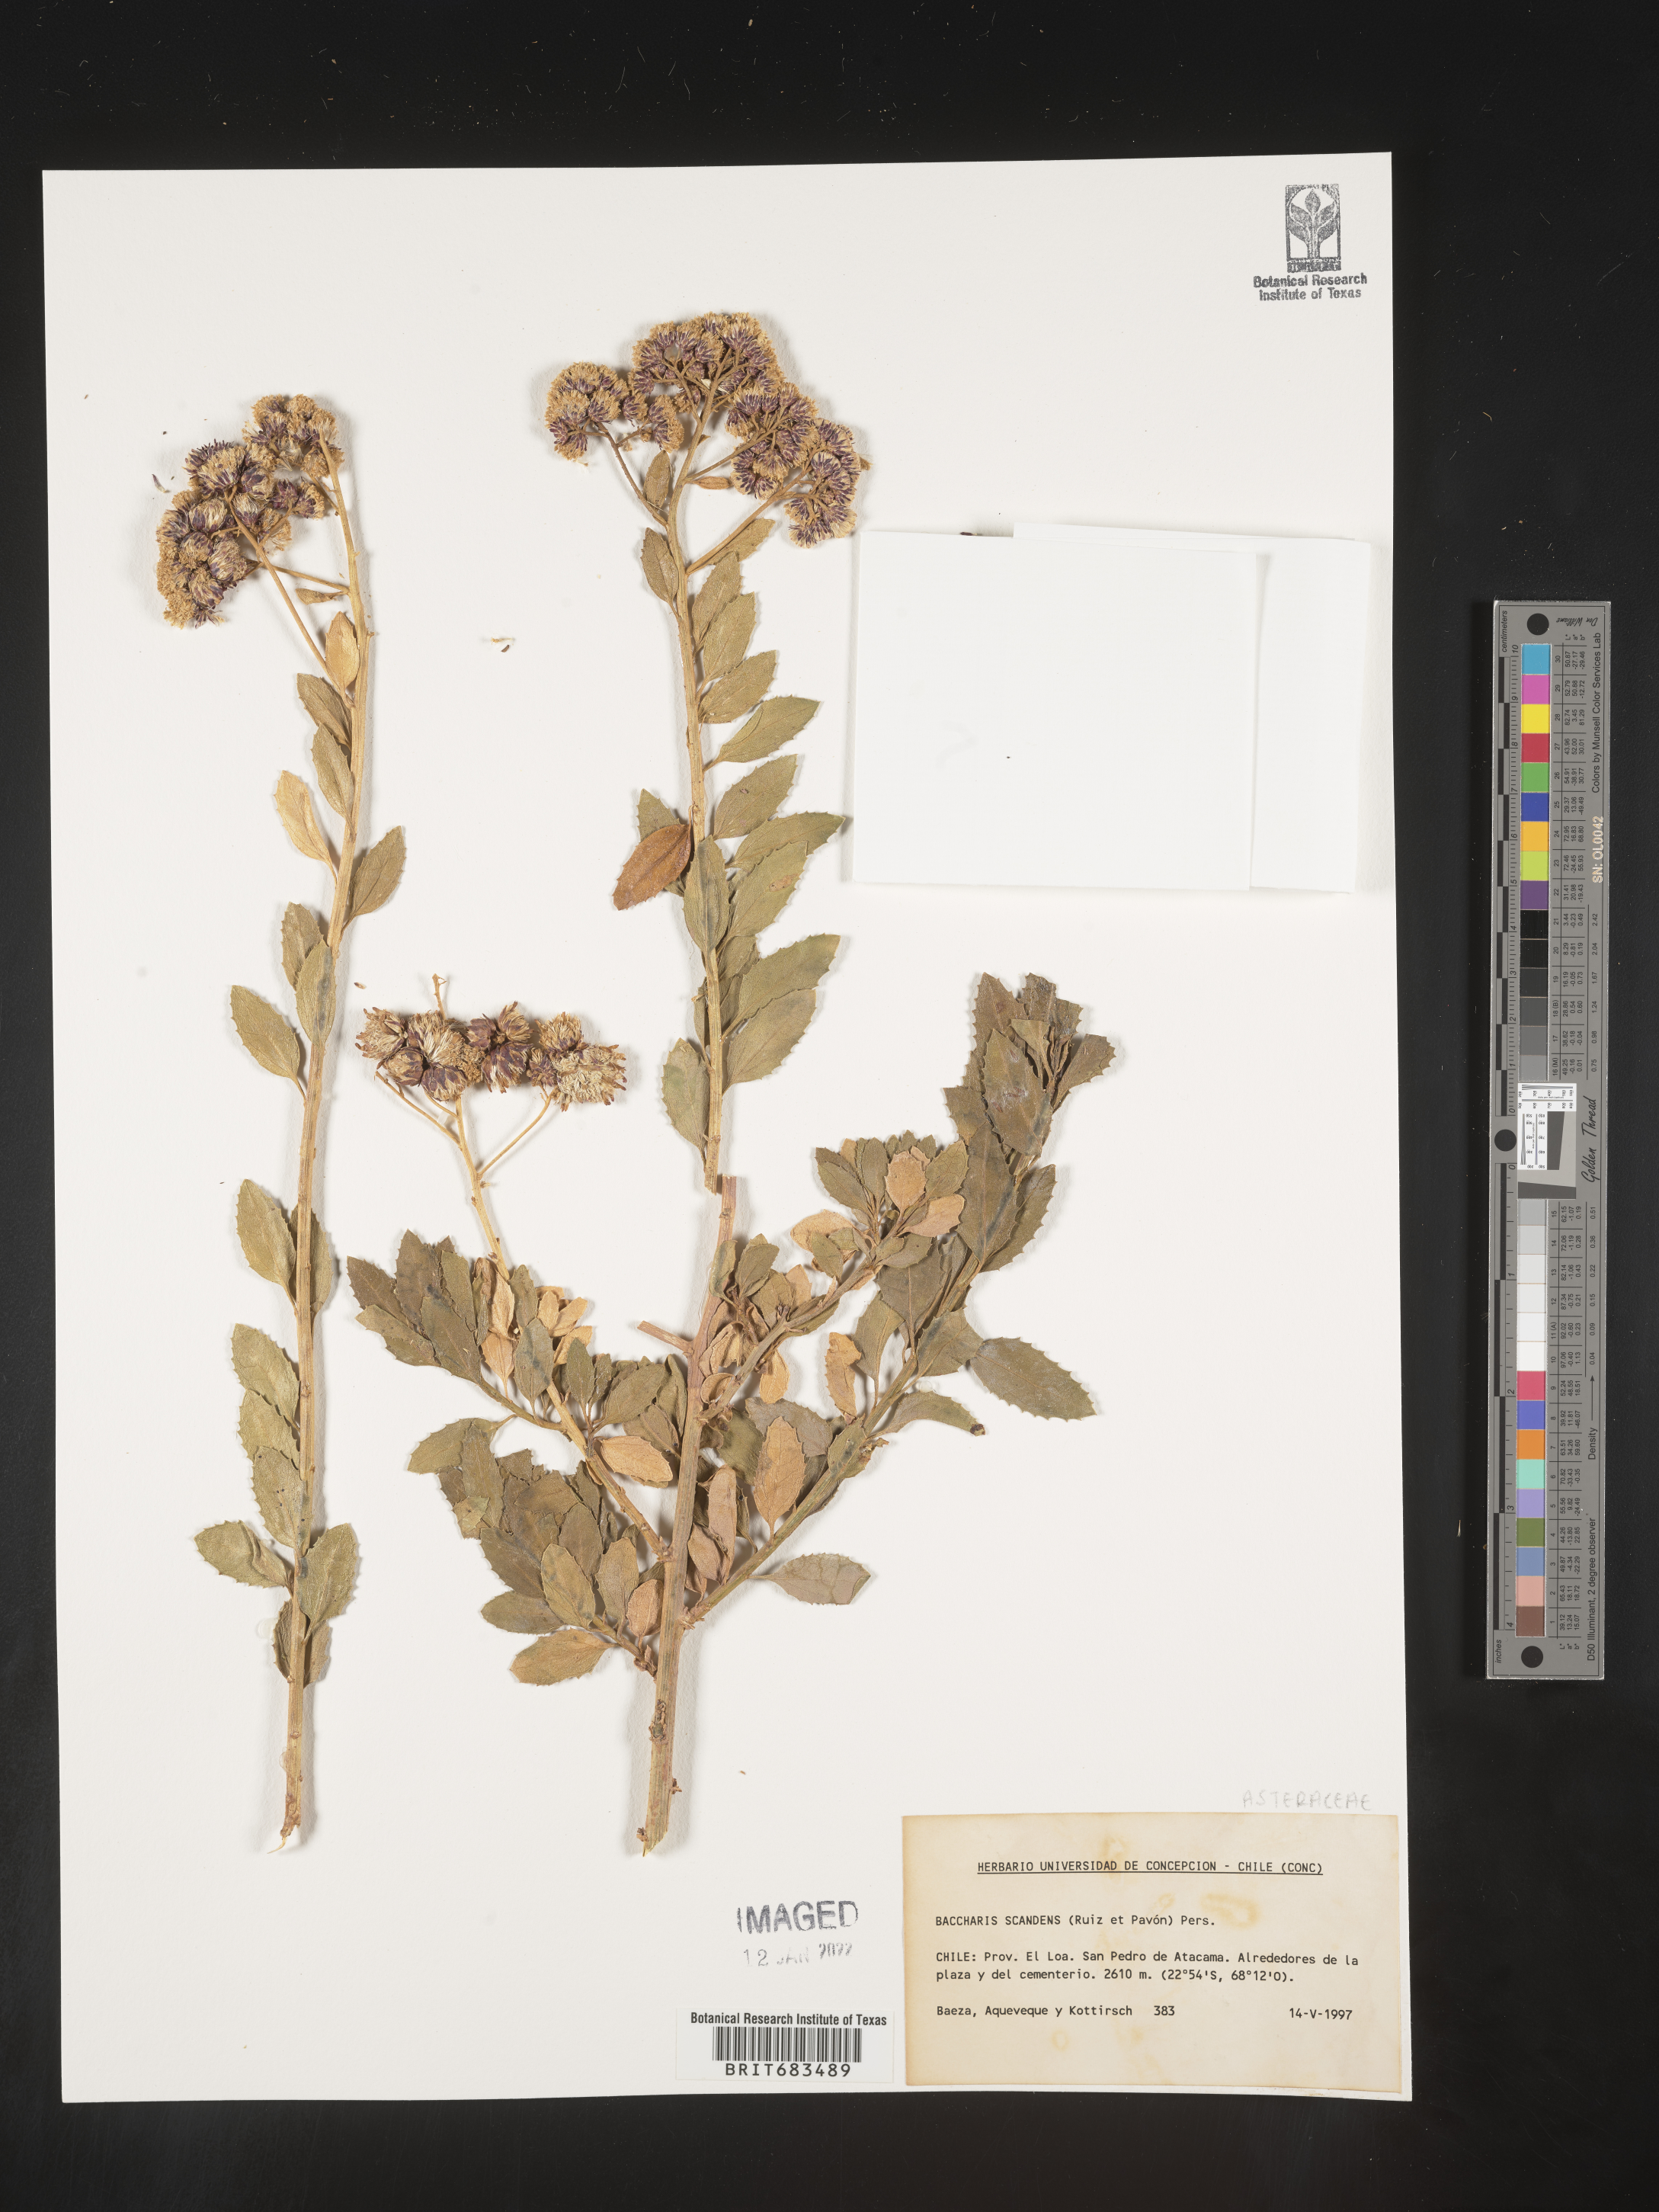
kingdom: Plantae
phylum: Tracheophyta
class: Magnoliopsida
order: Asterales
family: Asteraceae
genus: Baccharis
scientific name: Baccharis
